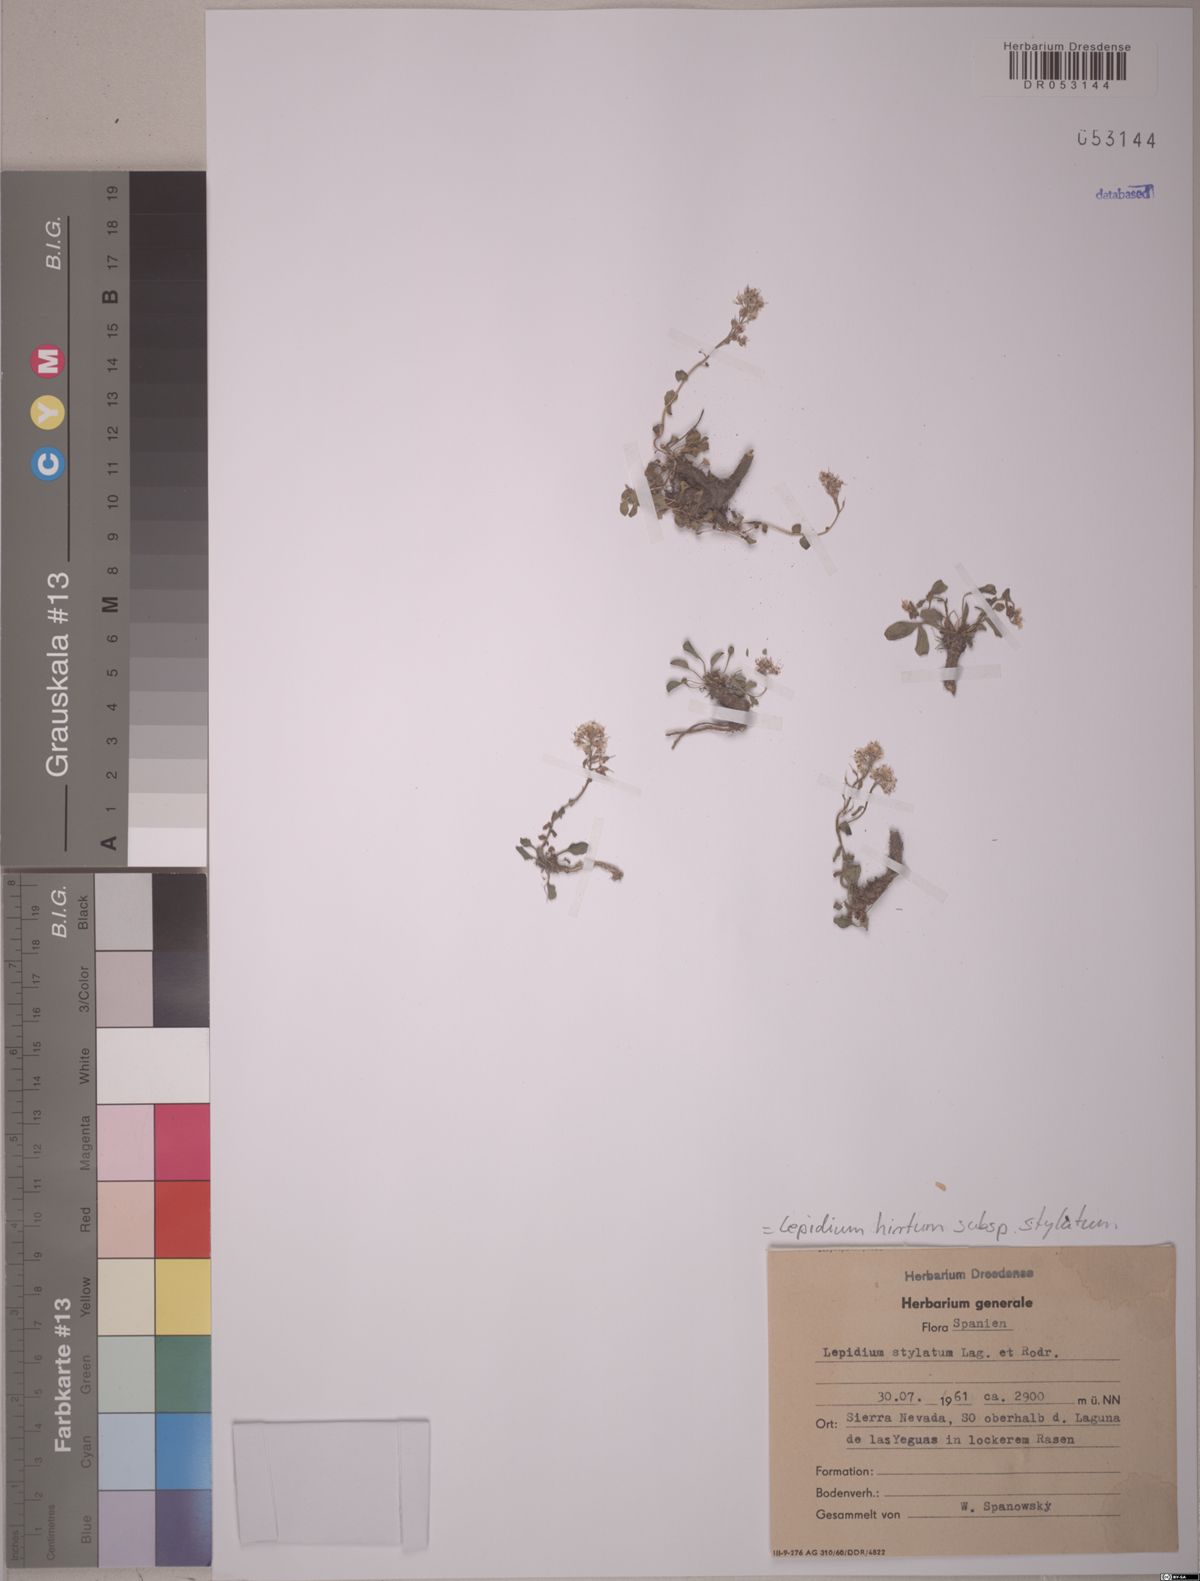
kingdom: Plantae
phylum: Tracheophyta
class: Magnoliopsida
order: Brassicales
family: Brassicaceae
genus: Lepidium
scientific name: Lepidium hirtum
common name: Mediterranean pepperweed
